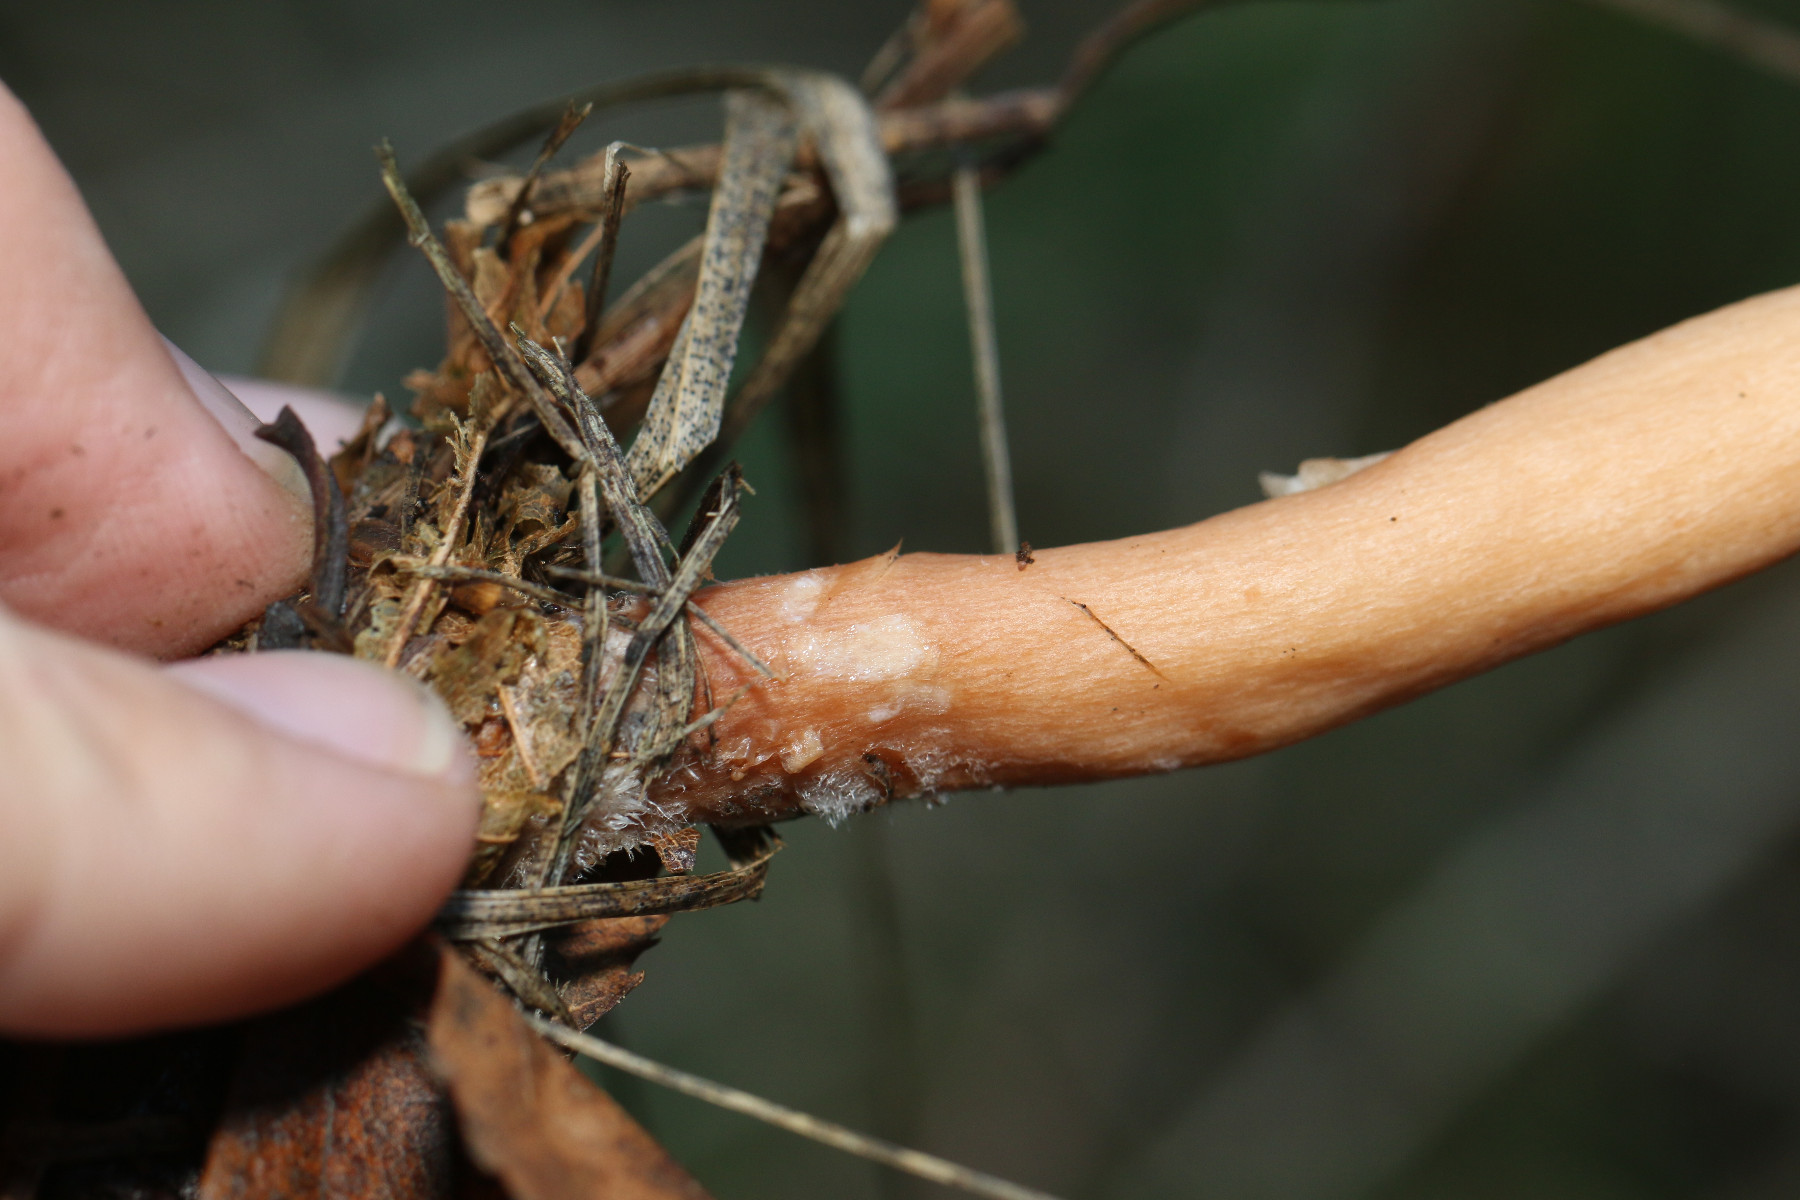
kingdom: Fungi
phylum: Basidiomycota
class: Agaricomycetes
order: Russulales
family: Russulaceae
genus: Lactarius
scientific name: Lactarius tabidus
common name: rynket mælkehat
